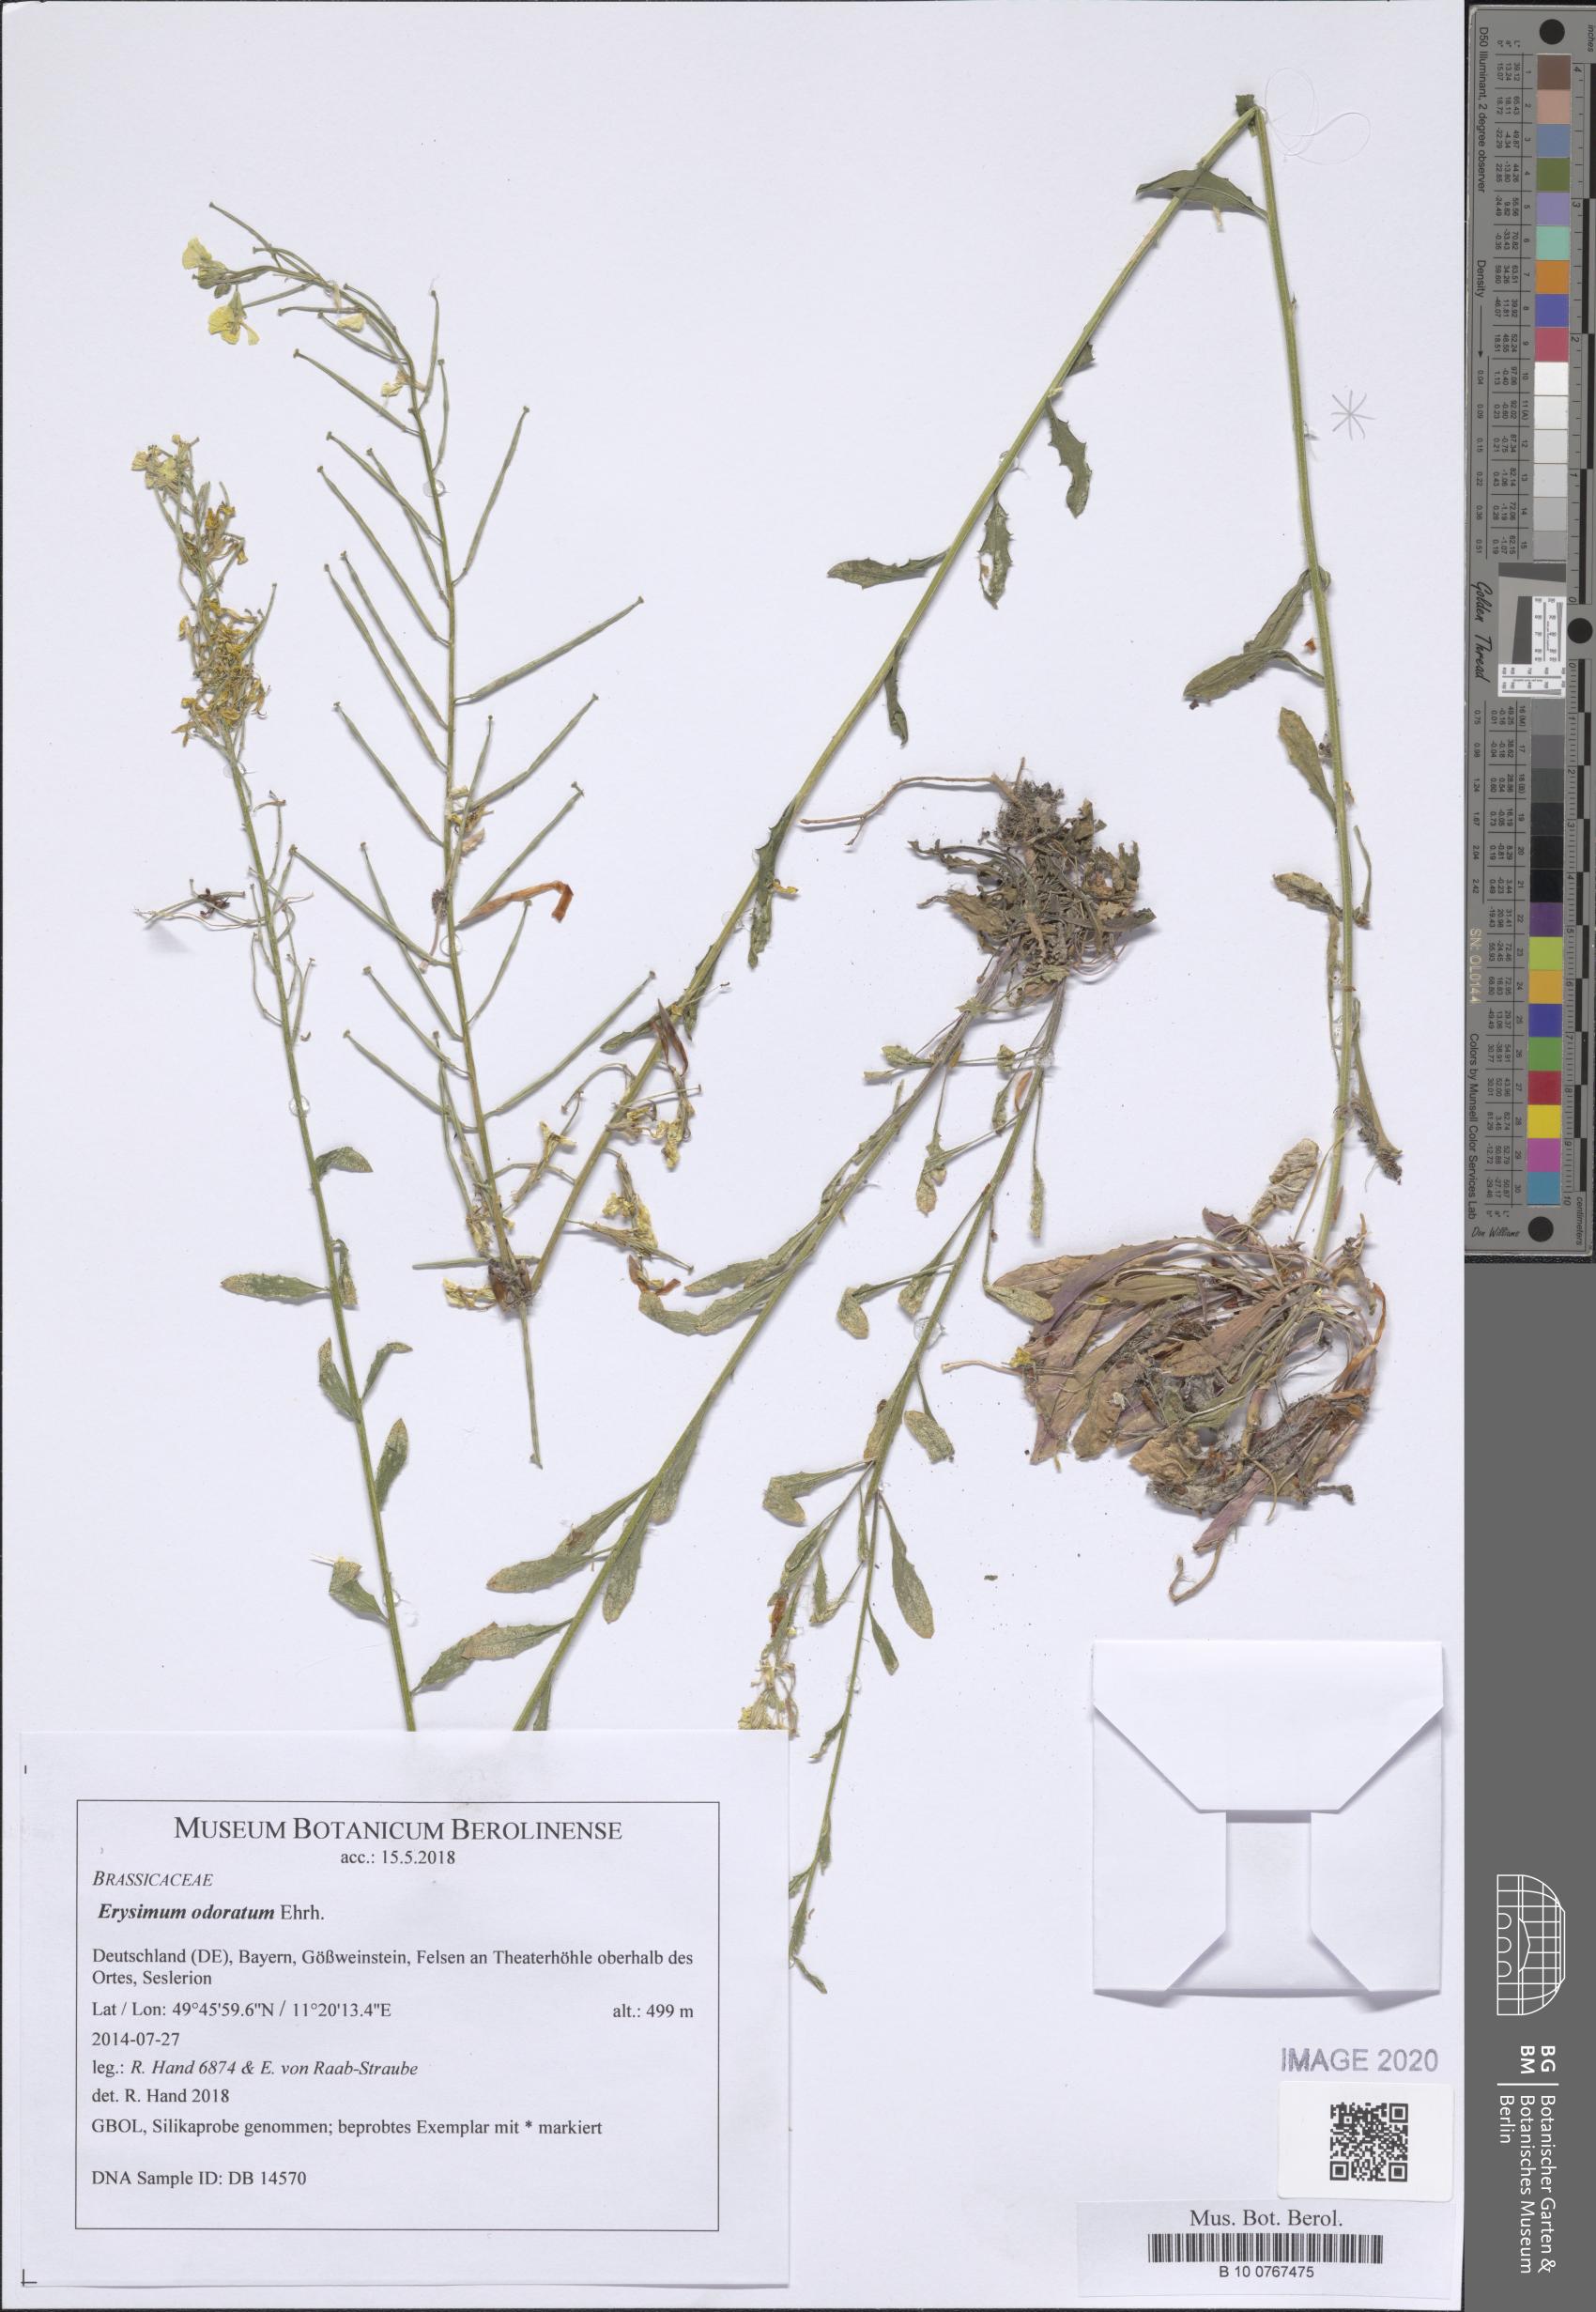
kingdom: Plantae
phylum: Tracheophyta
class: Magnoliopsida
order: Brassicales
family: Brassicaceae
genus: Erysimum
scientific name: Erysimum odoratum
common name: Smelly wallflower
